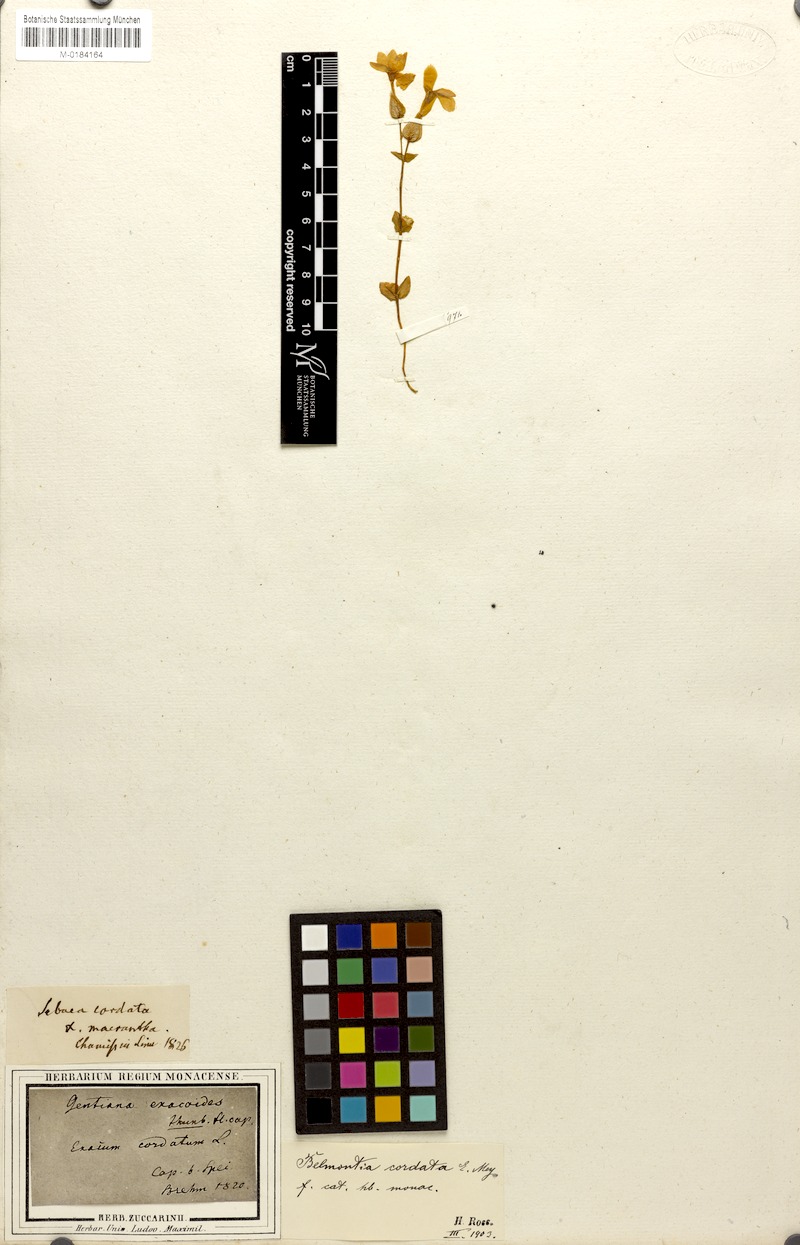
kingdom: Plantae
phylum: Tracheophyta
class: Magnoliopsida
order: Gentianales
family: Gentianaceae
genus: Sebaea
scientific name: Sebaea exacoides
